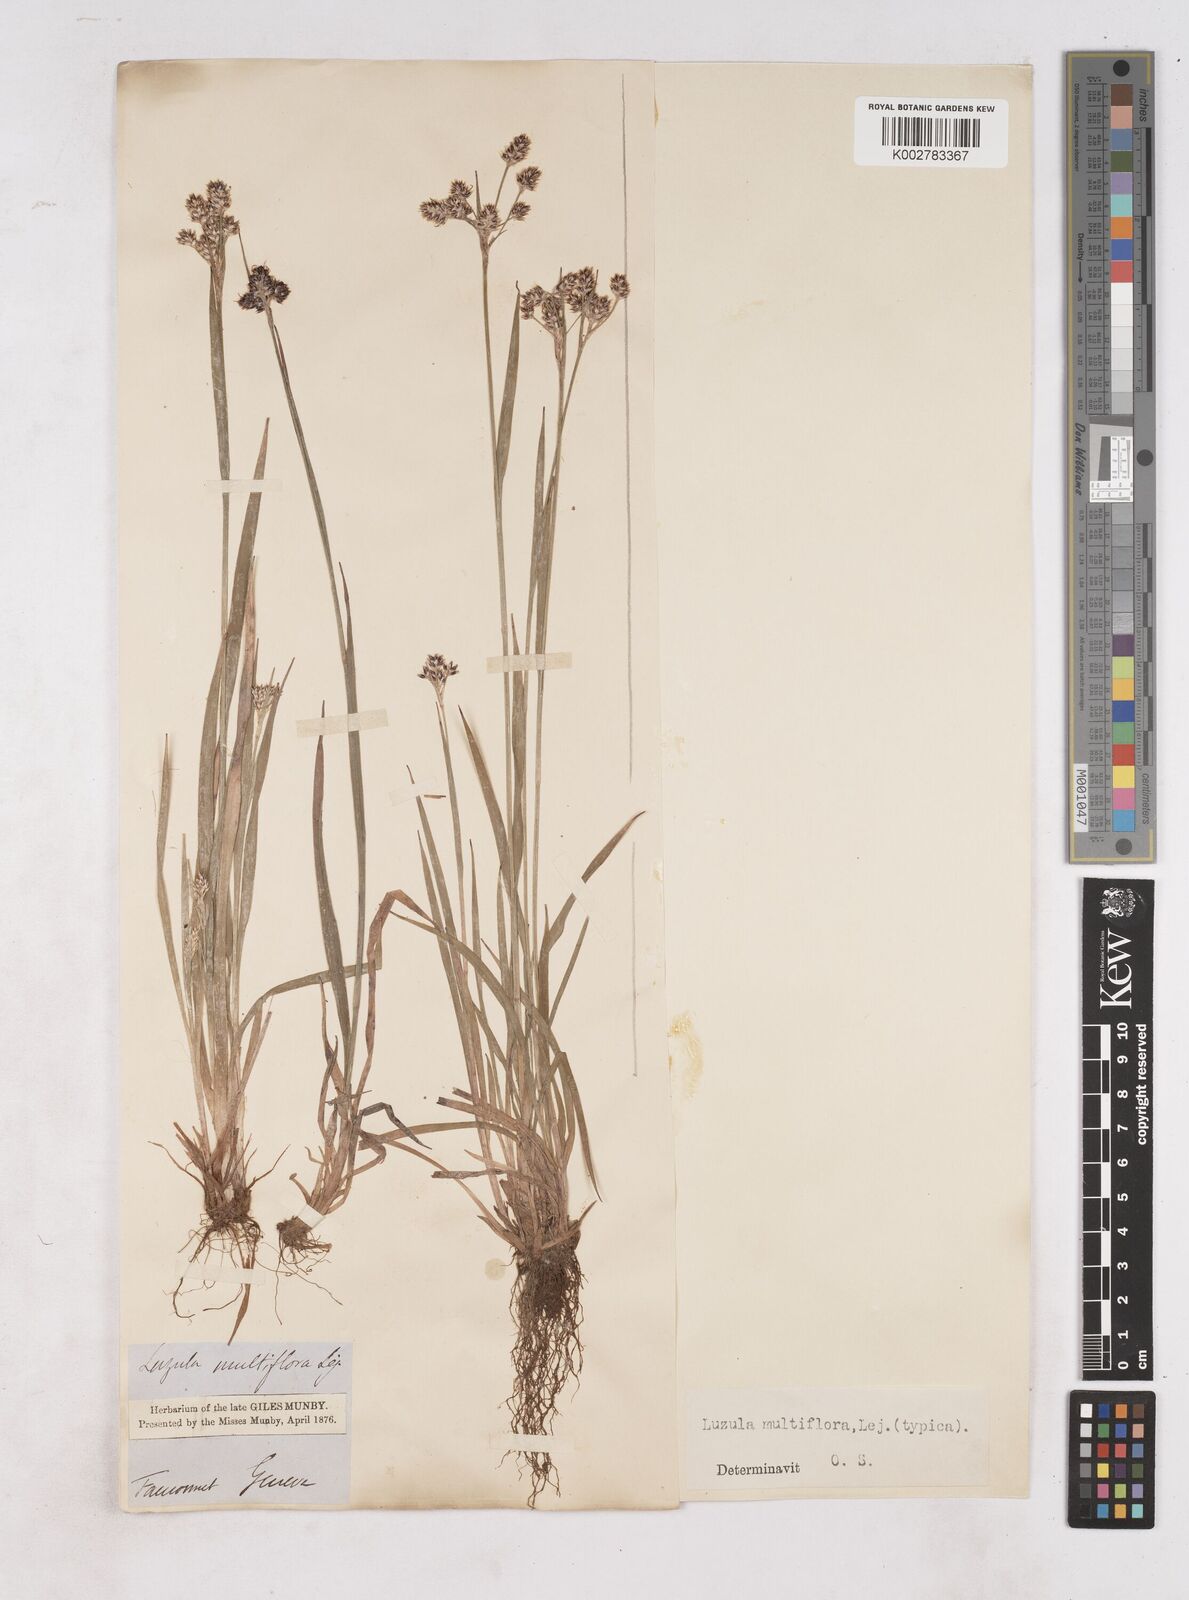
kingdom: Plantae
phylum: Tracheophyta
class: Liliopsida
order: Poales
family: Juncaceae
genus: Luzula
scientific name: Luzula multiflora
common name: Heath wood-rush
